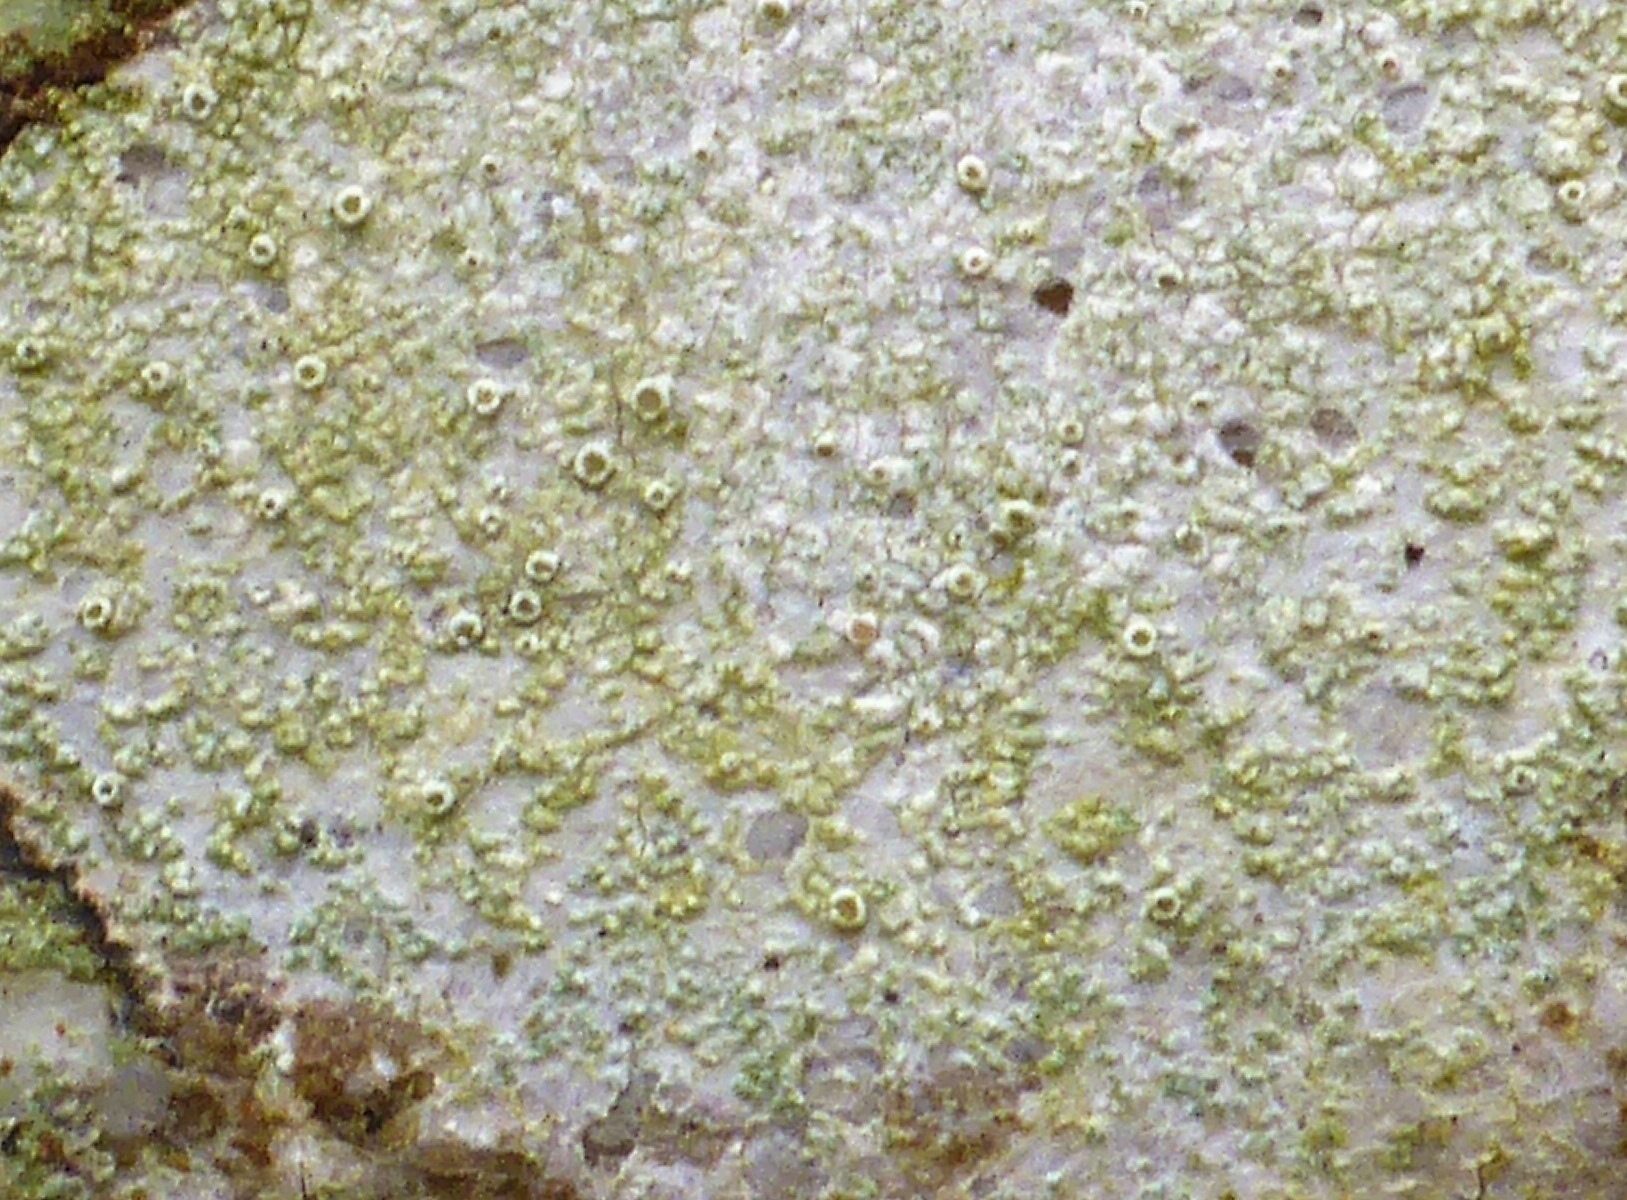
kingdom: Fungi
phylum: Ascomycota
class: Lecanoromycetes
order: Lecanorales
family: Lecanoraceae
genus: Lecanora
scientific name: Lecanora chlarotera
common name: Brun kantskivelav
